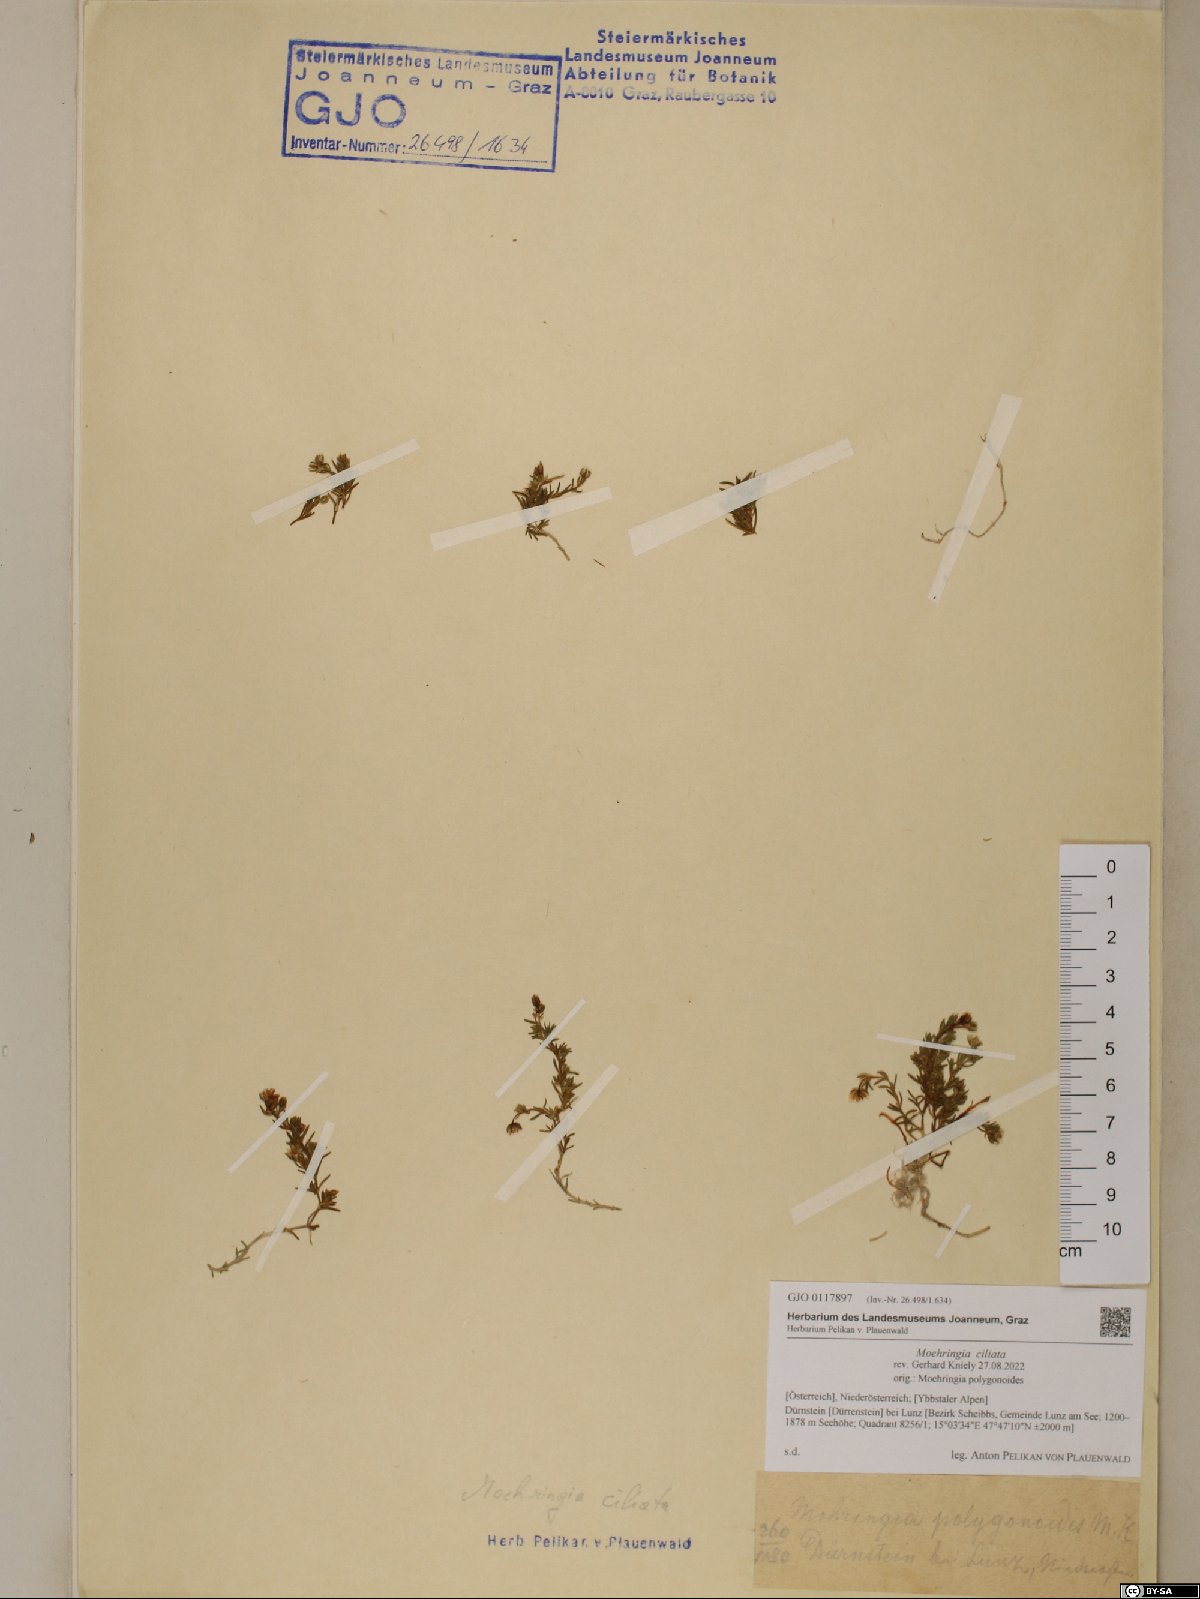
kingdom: Plantae
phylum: Tracheophyta
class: Magnoliopsida
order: Caryophyllales
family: Caryophyllaceae
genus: Moehringia
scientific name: Moehringia ciliata
